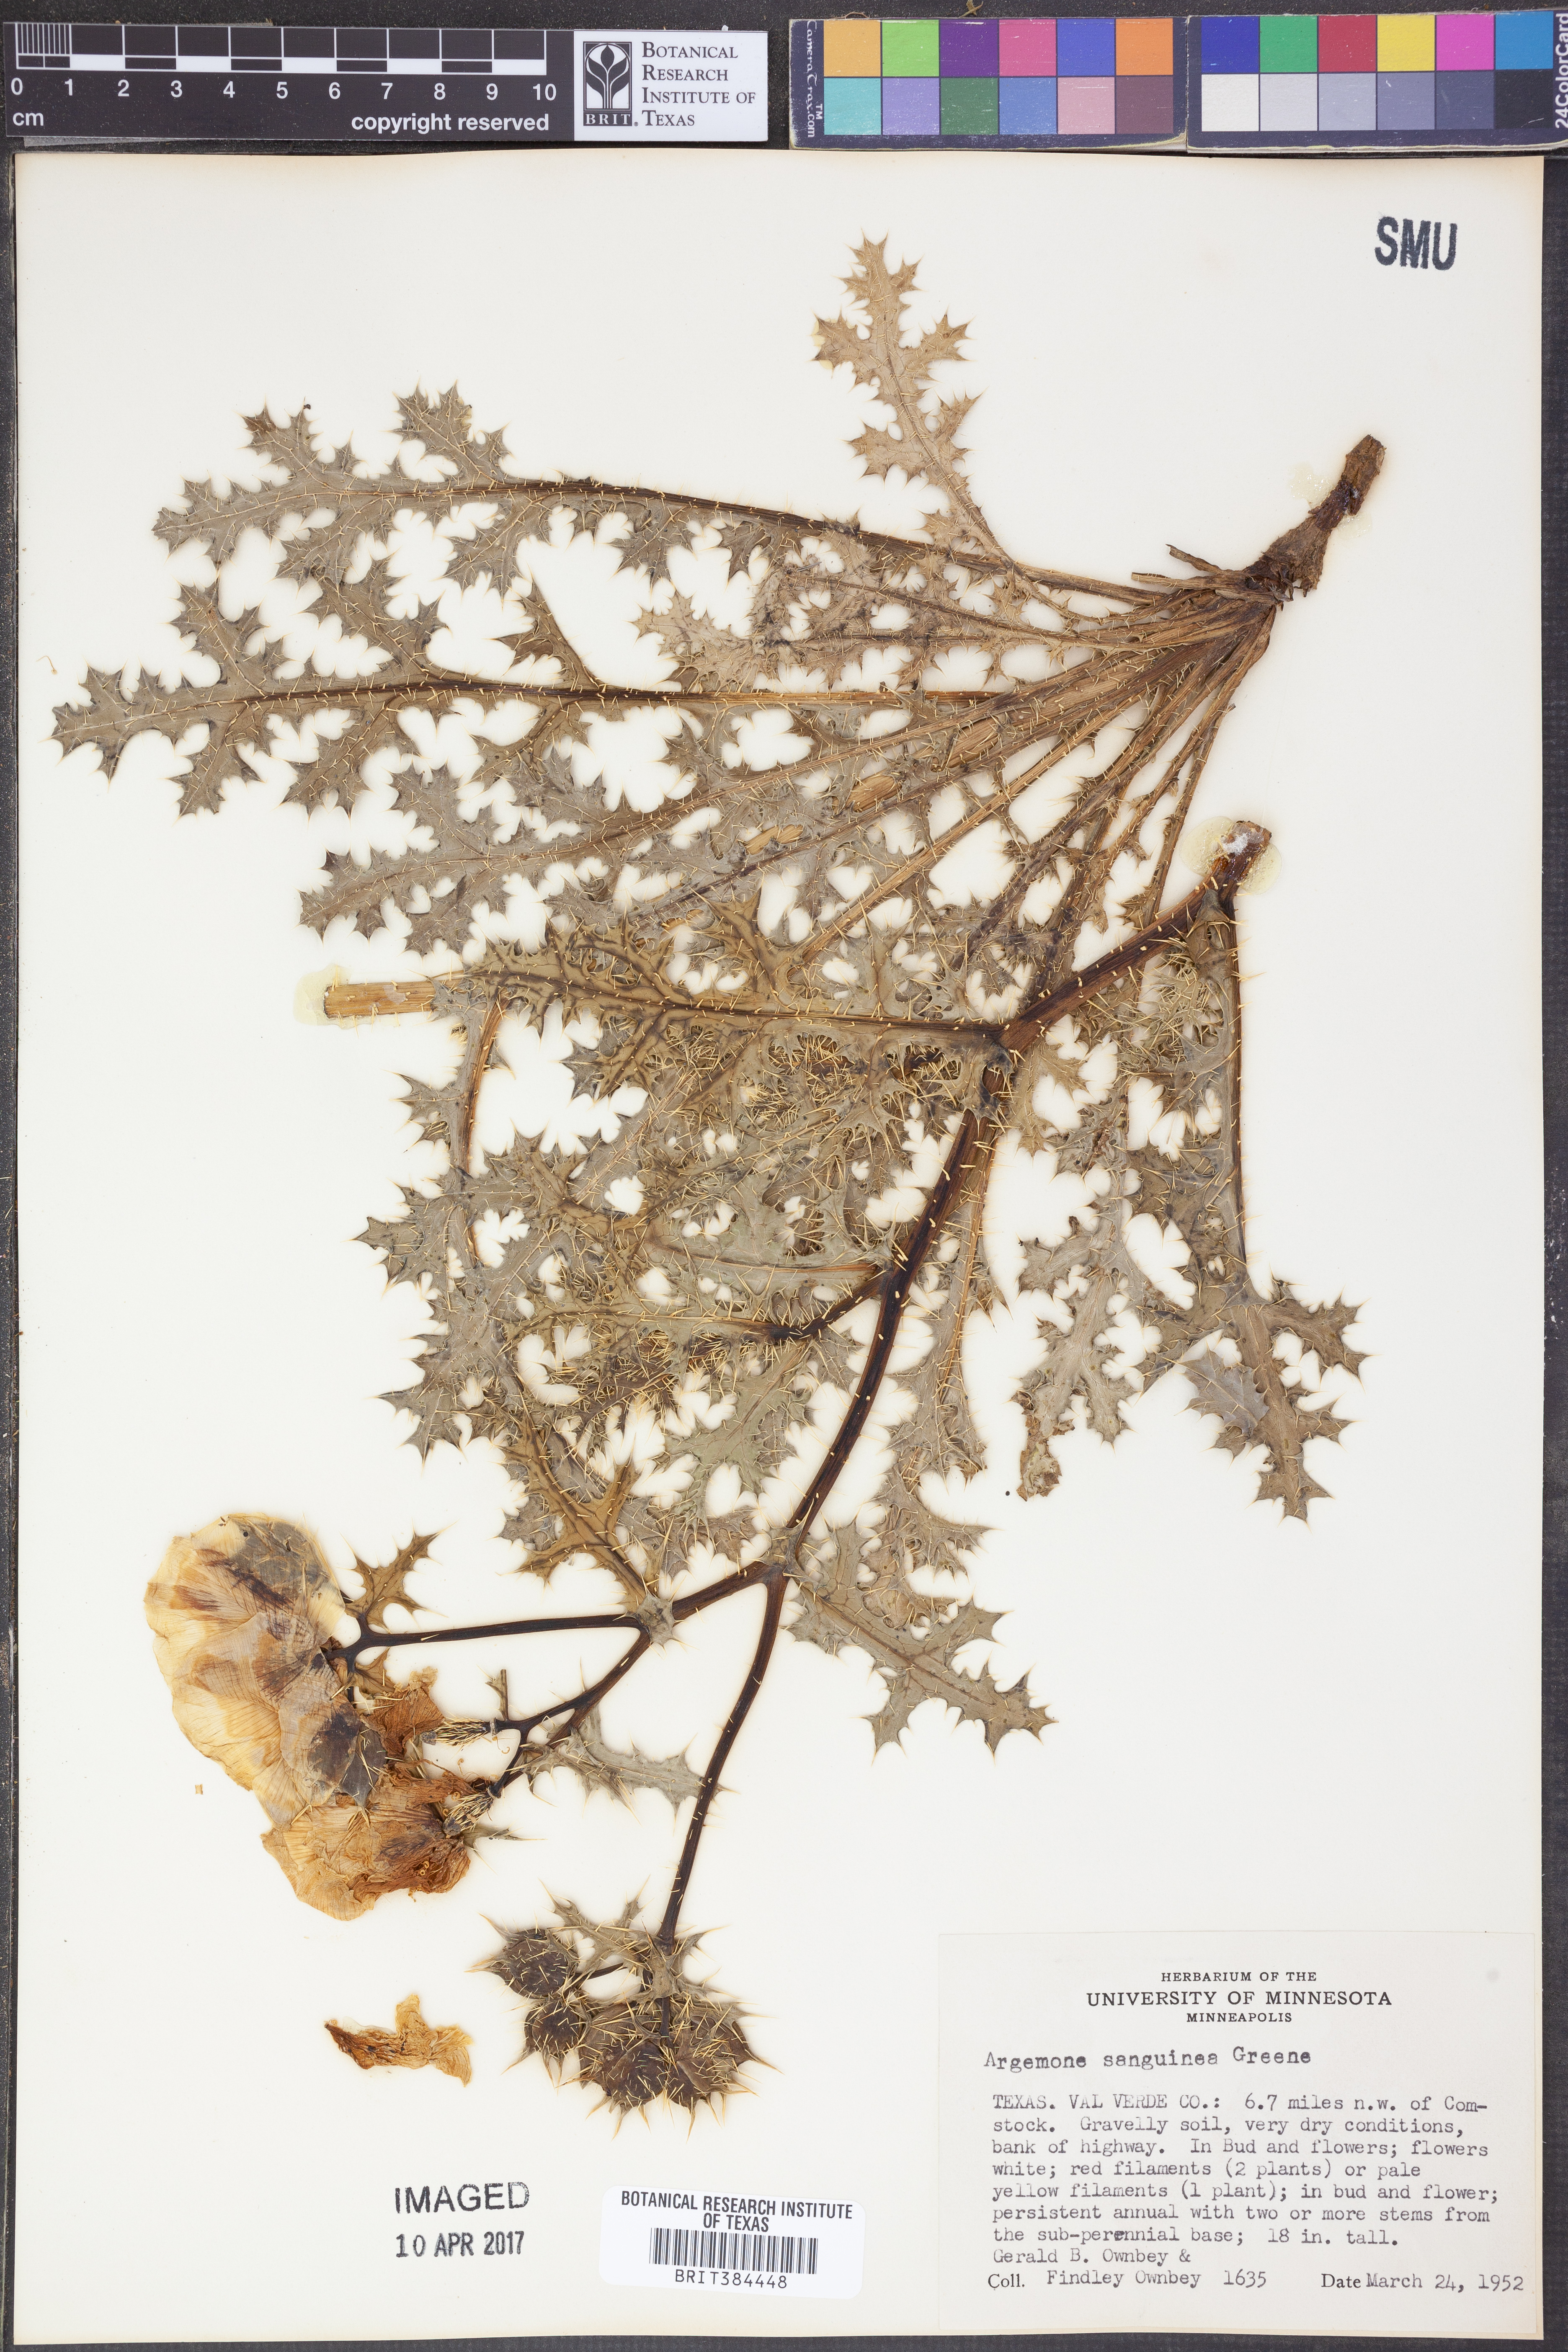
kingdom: Plantae
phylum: Tracheophyta
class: Magnoliopsida
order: Ranunculales
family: Papaveraceae
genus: Argemone
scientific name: Argemone sanguinea
